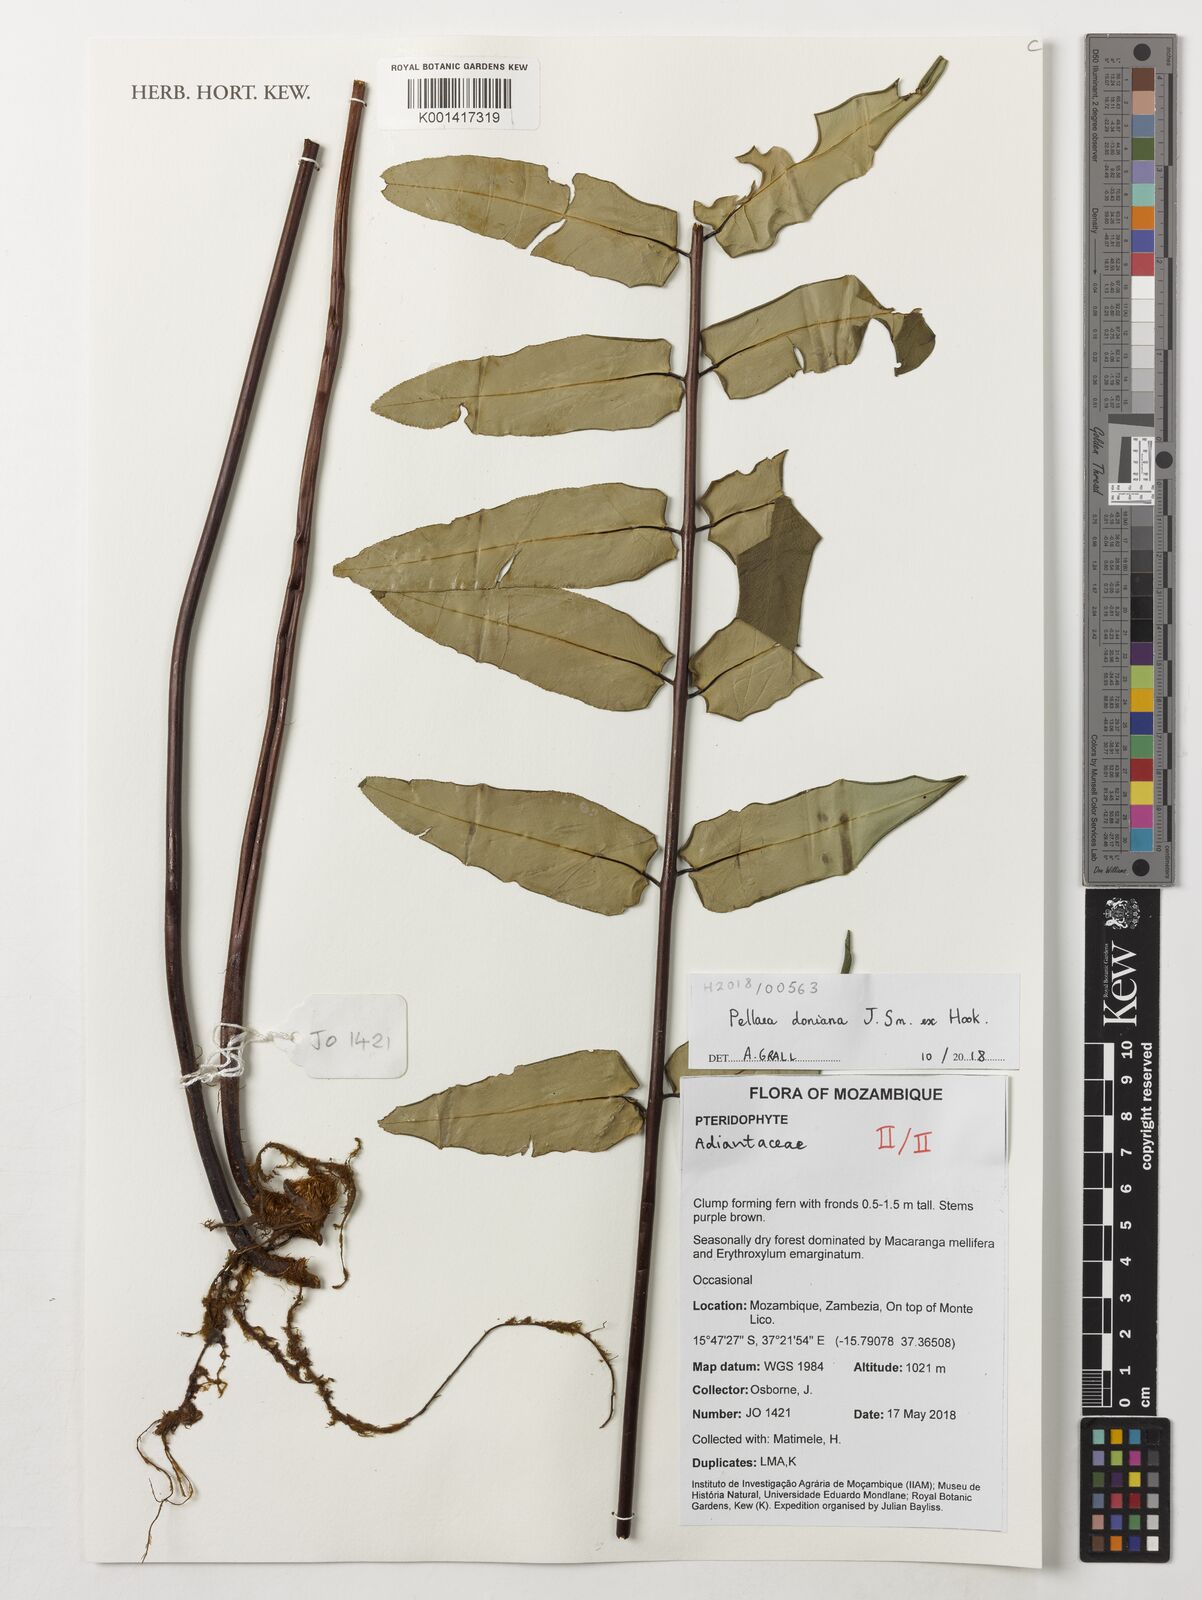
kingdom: Plantae
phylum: Tracheophyta
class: Polypodiopsida
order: Polypodiales
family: Pteridaceae
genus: Pellaea
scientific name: Pellaea doniana
